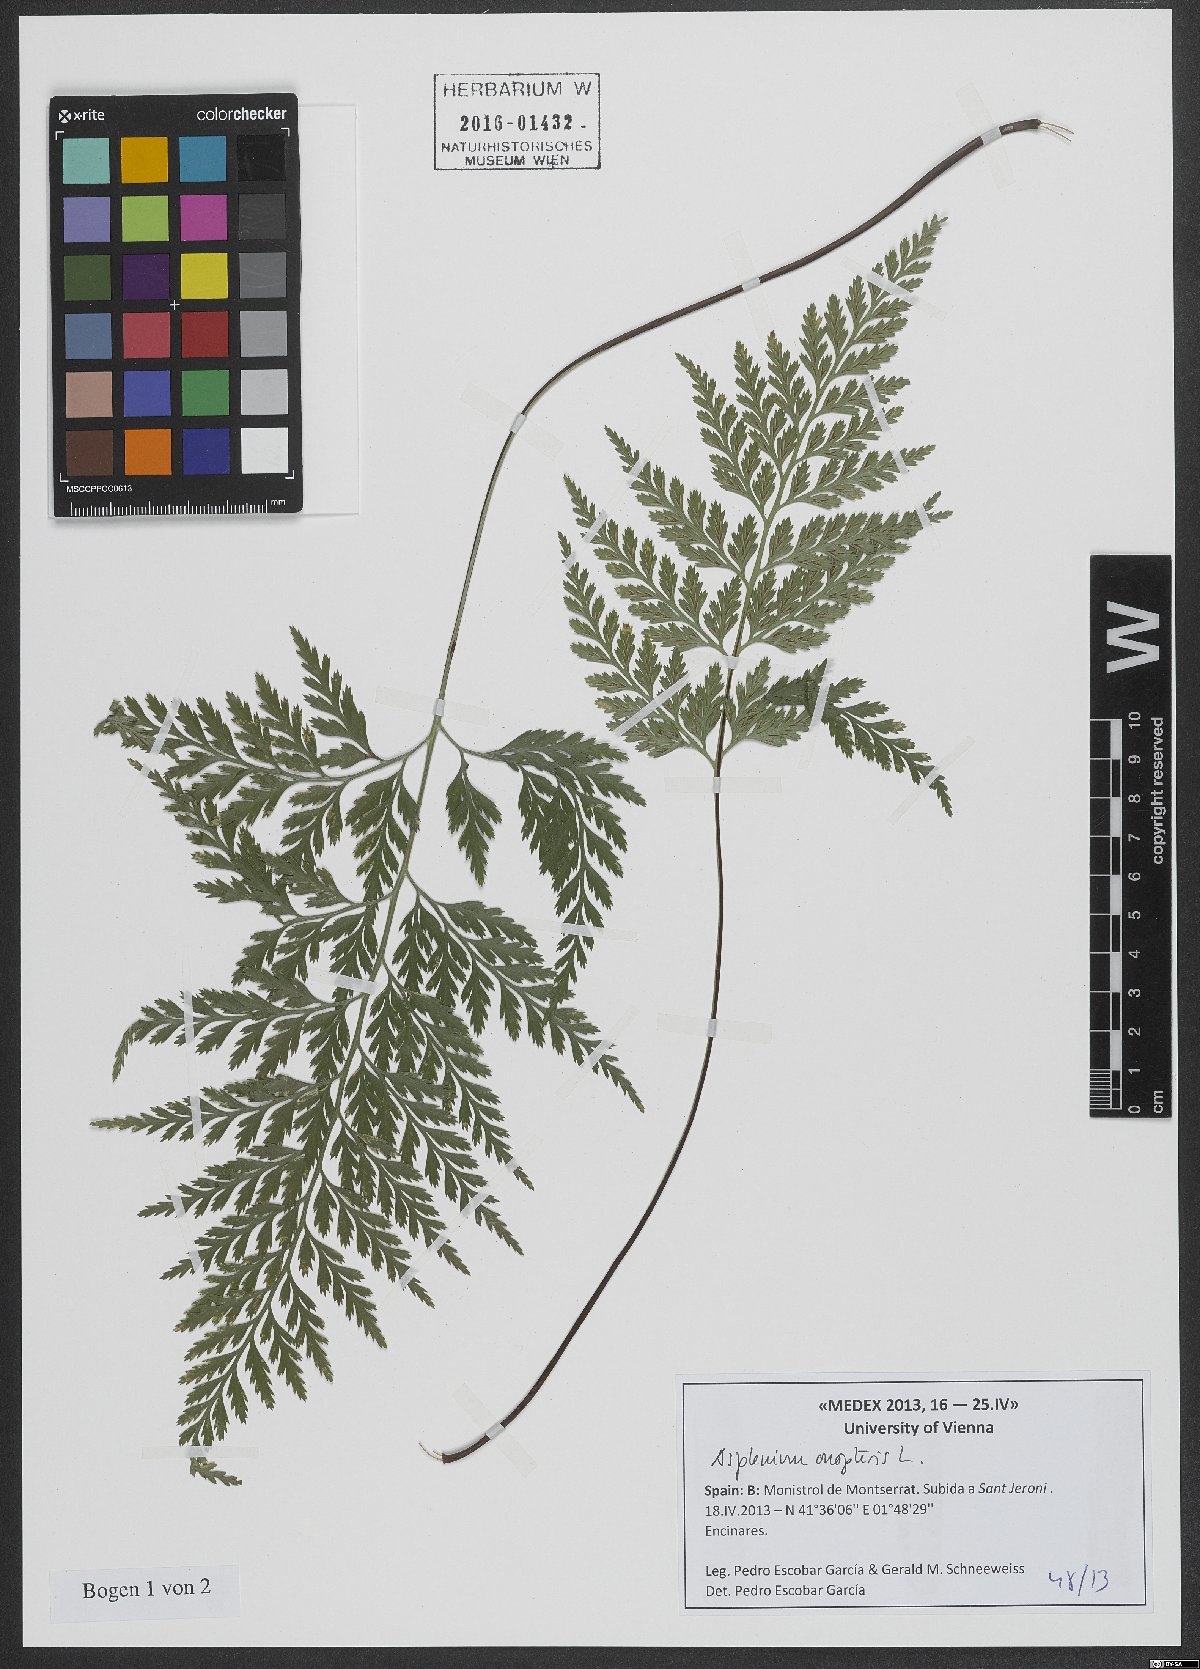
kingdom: Plantae
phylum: Tracheophyta
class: Polypodiopsida
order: Polypodiales
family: Aspleniaceae
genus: Asplenium
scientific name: Asplenium onopteris
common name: Irish spleenwort
